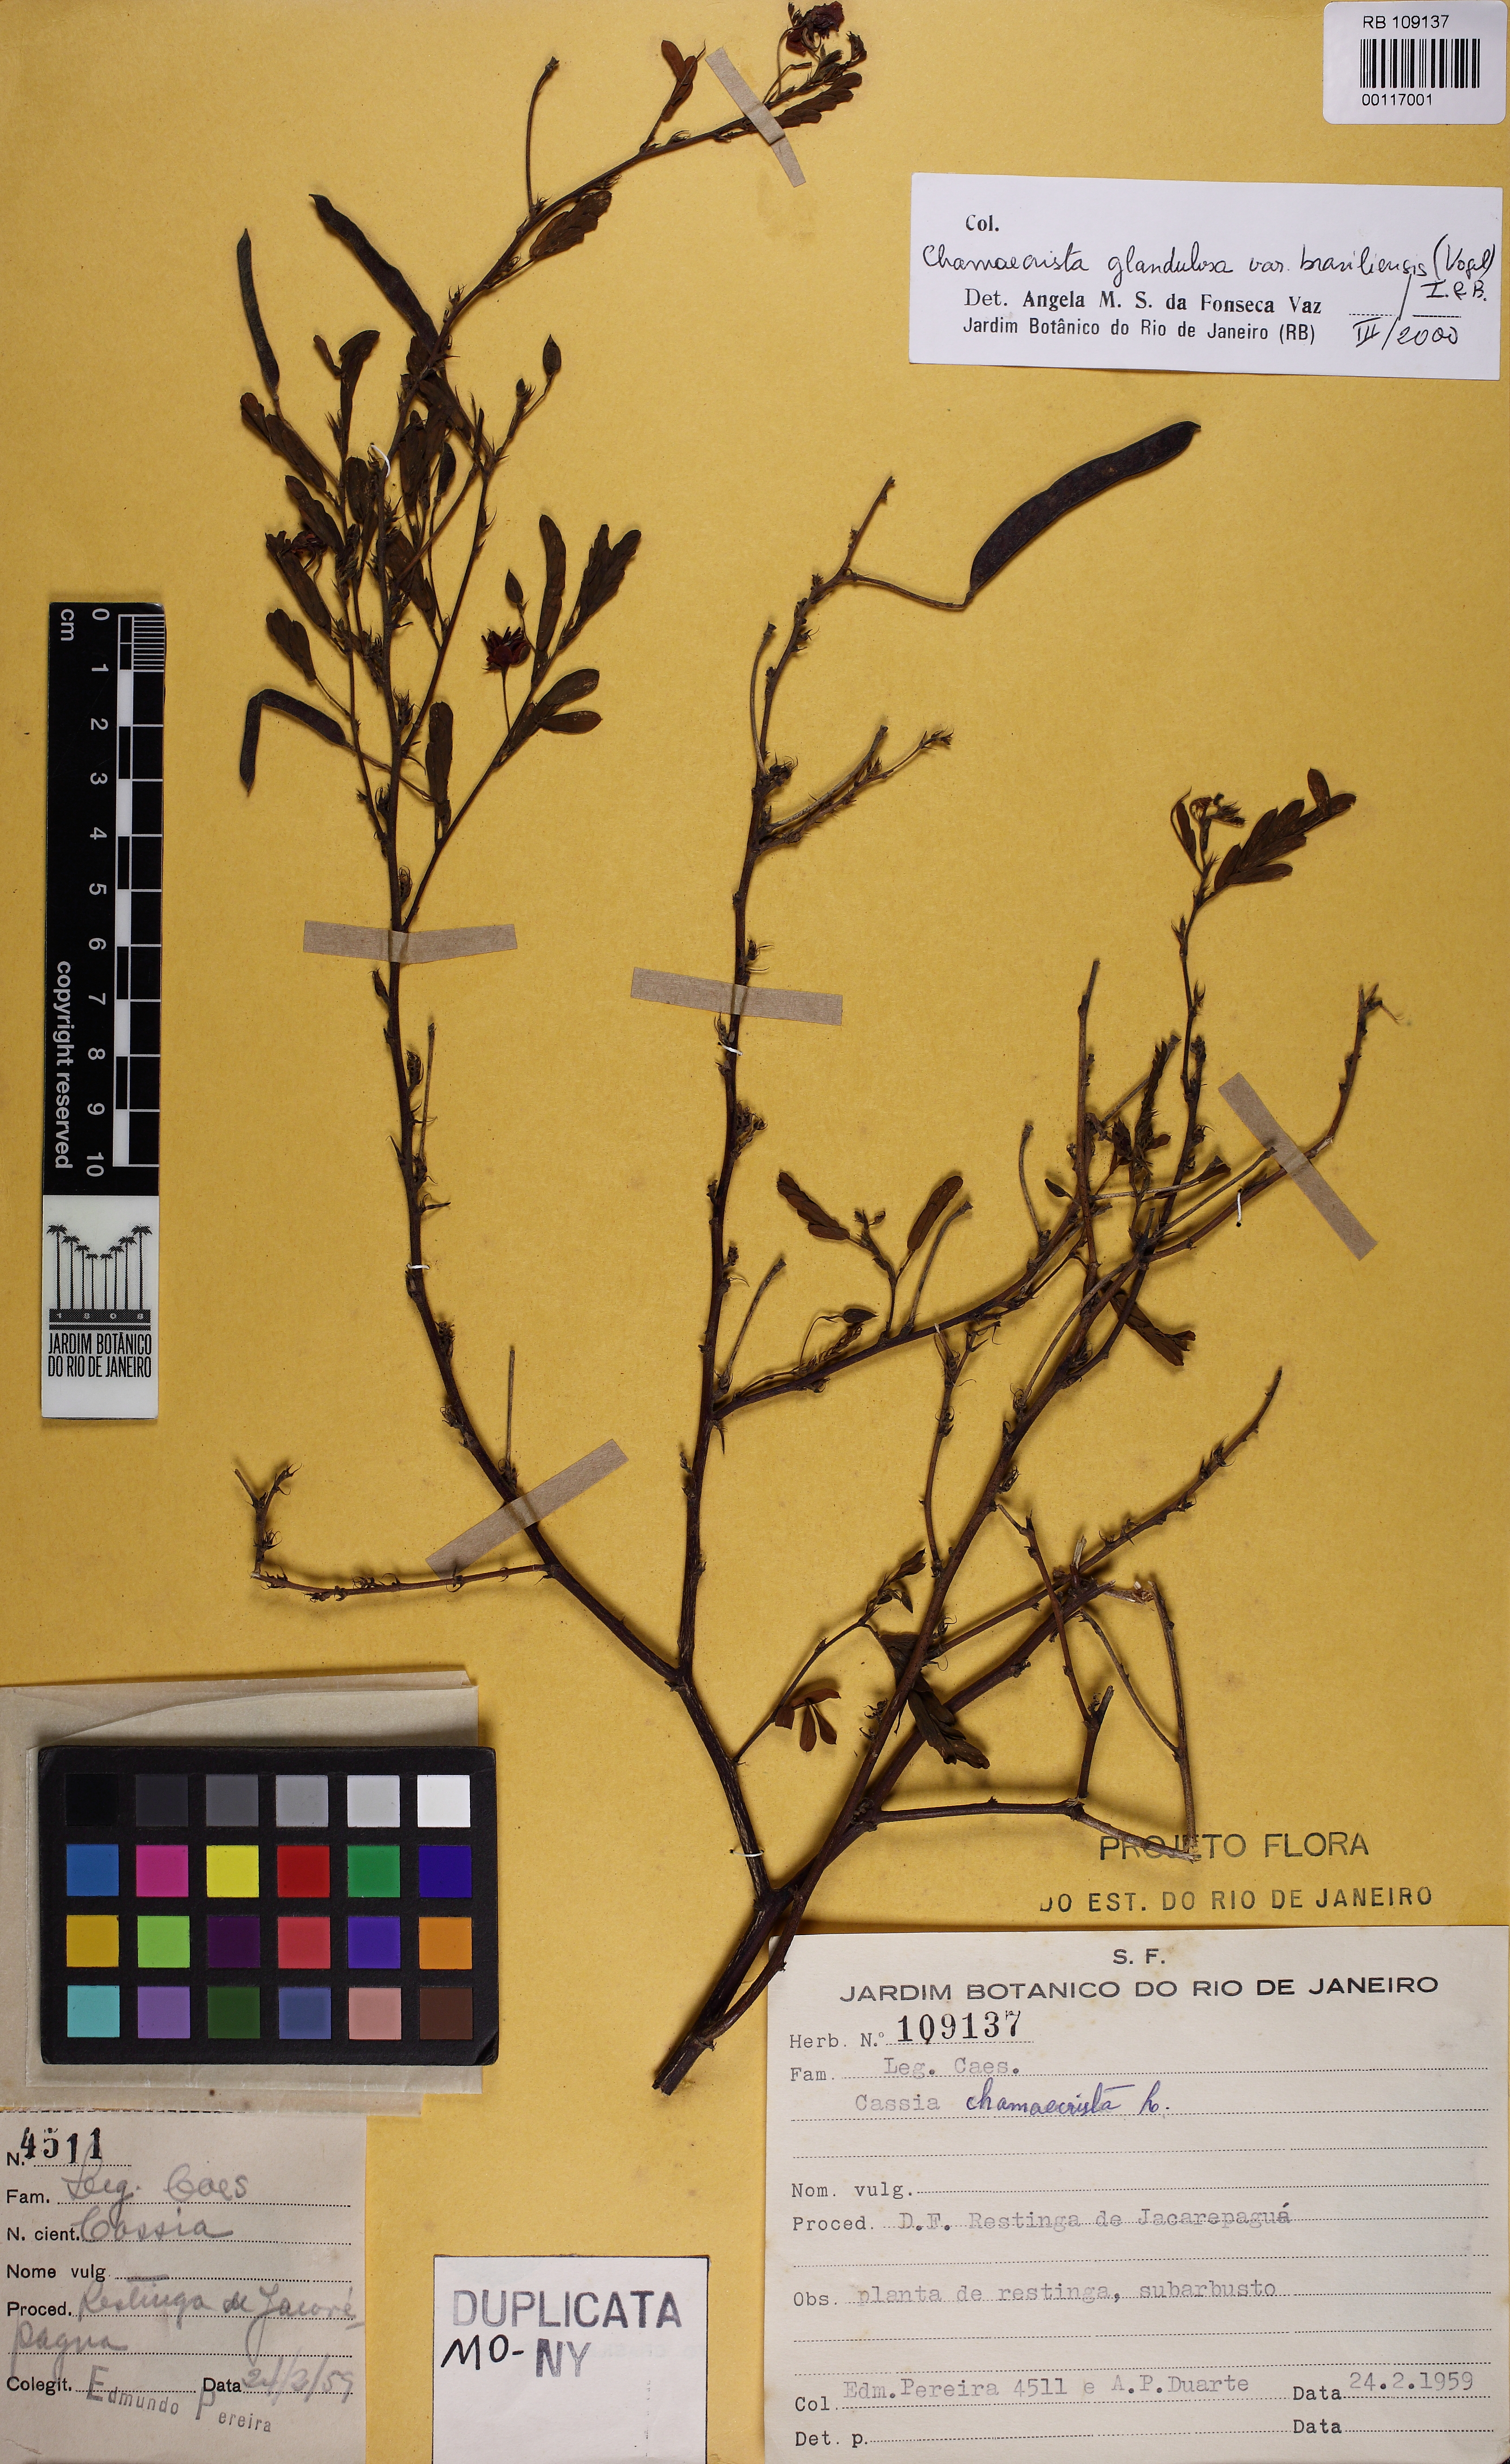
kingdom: Plantae
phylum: Tracheophyta
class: Magnoliopsida
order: Fabales
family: Fabaceae
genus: Chamaecrista
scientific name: Chamaecrista glandulosa
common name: Wild peas
